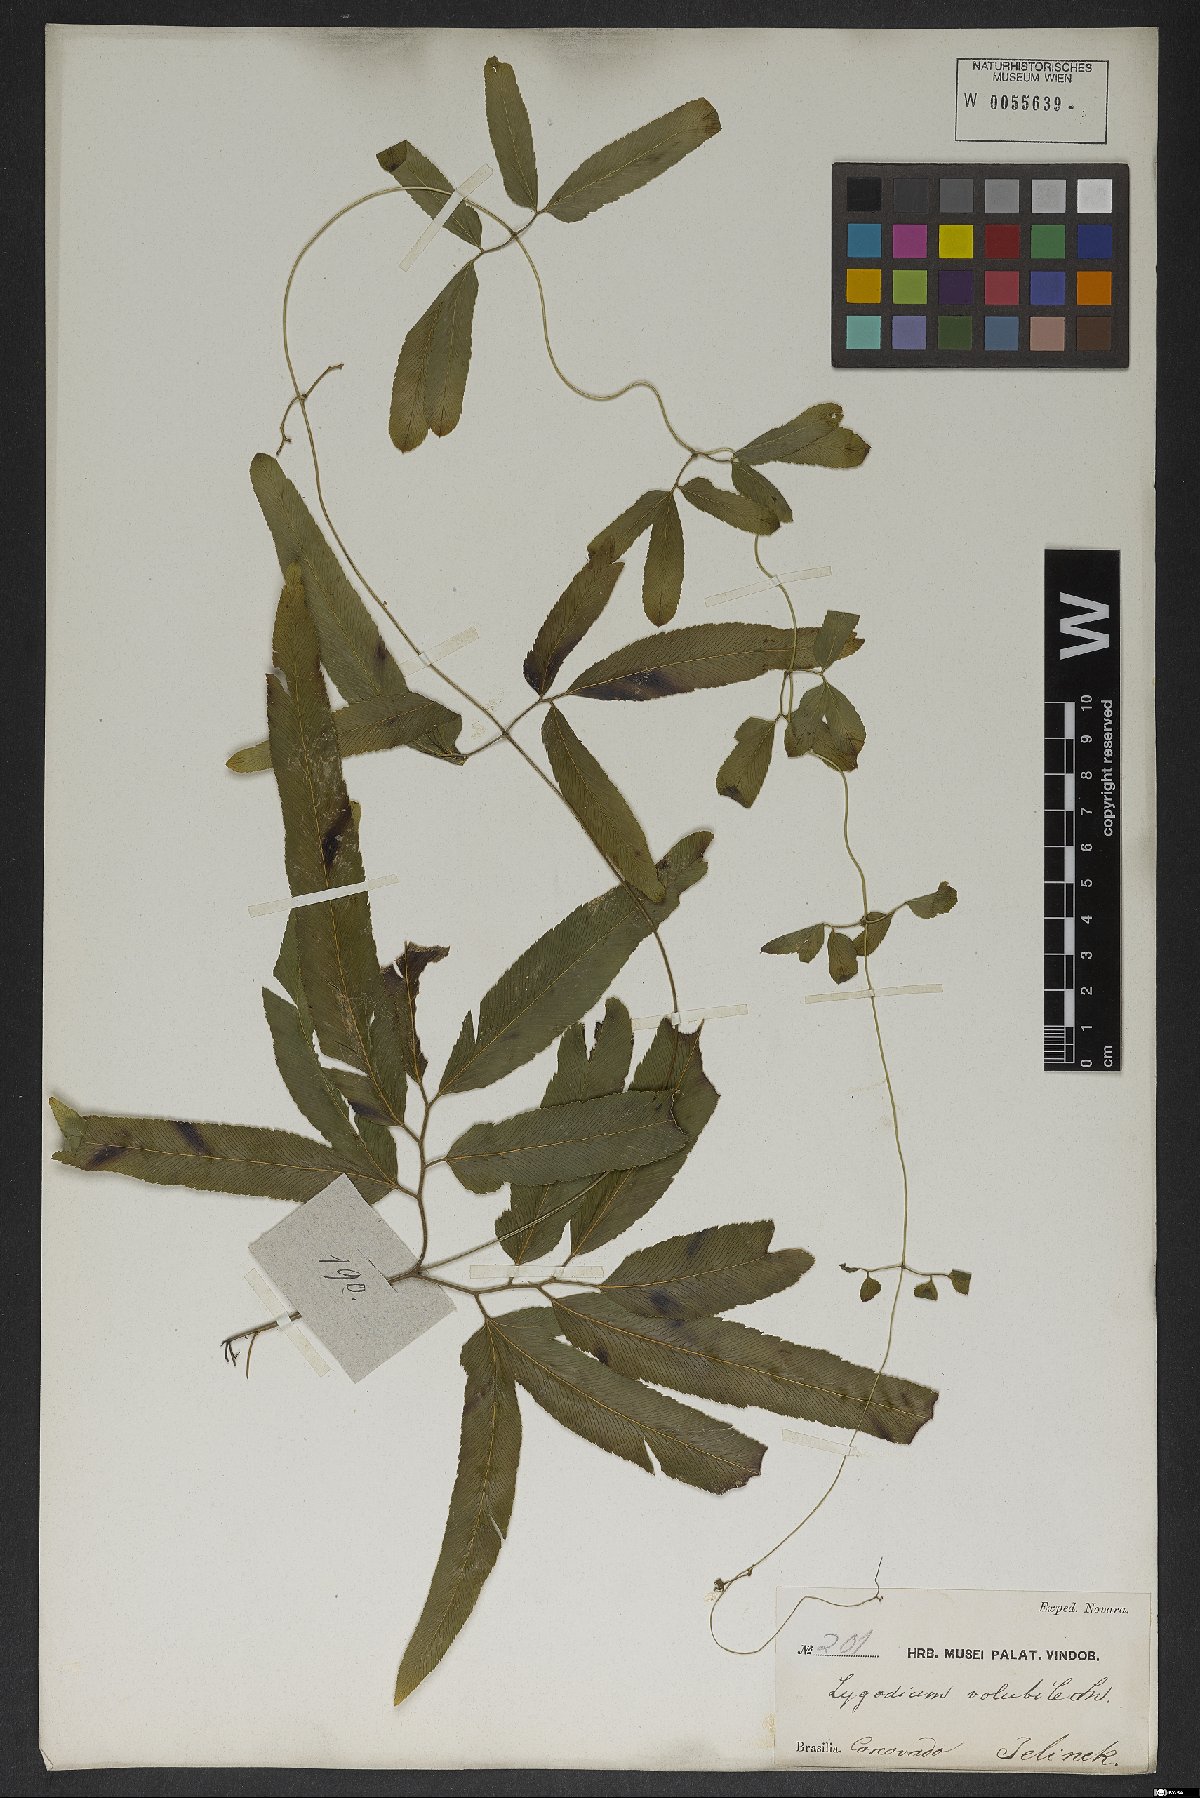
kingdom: Plantae
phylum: Tracheophyta
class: Polypodiopsida
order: Schizaeales
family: Lygodiaceae
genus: Lygodium
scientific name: Lygodium volubile
